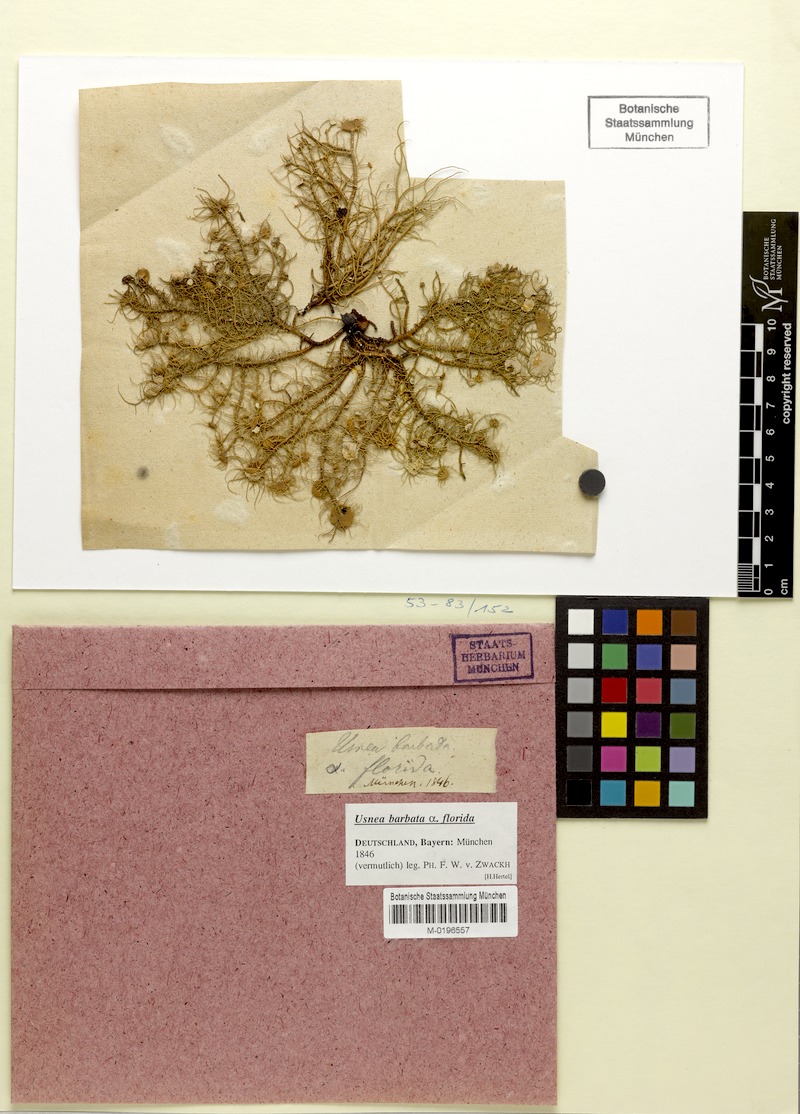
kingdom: Fungi
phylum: Ascomycota
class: Lecanoromycetes
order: Lecanorales
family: Parmeliaceae
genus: Usnea
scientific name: Usnea florida
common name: Witches' whiskers lichen
